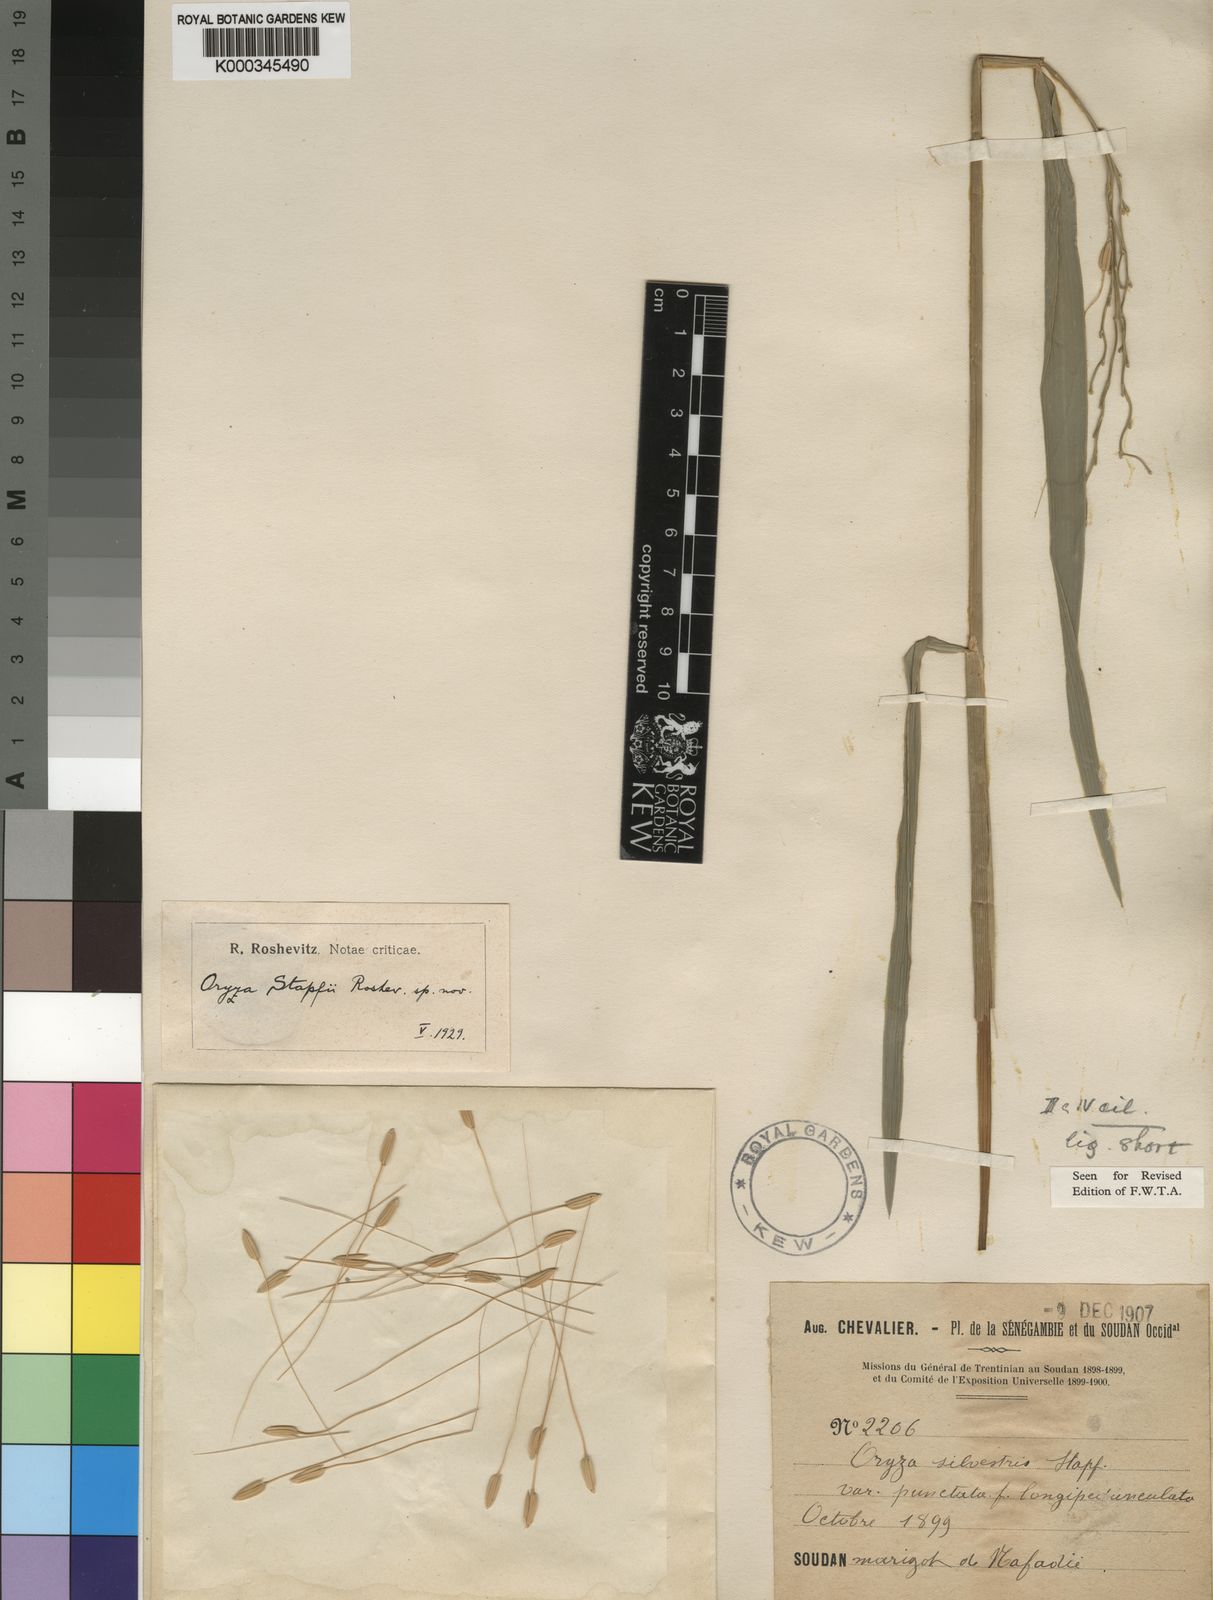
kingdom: Plantae
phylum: Tracheophyta
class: Liliopsida
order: Poales
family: Poaceae
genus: Oryza
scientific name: Oryza barthii
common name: Wild rice
